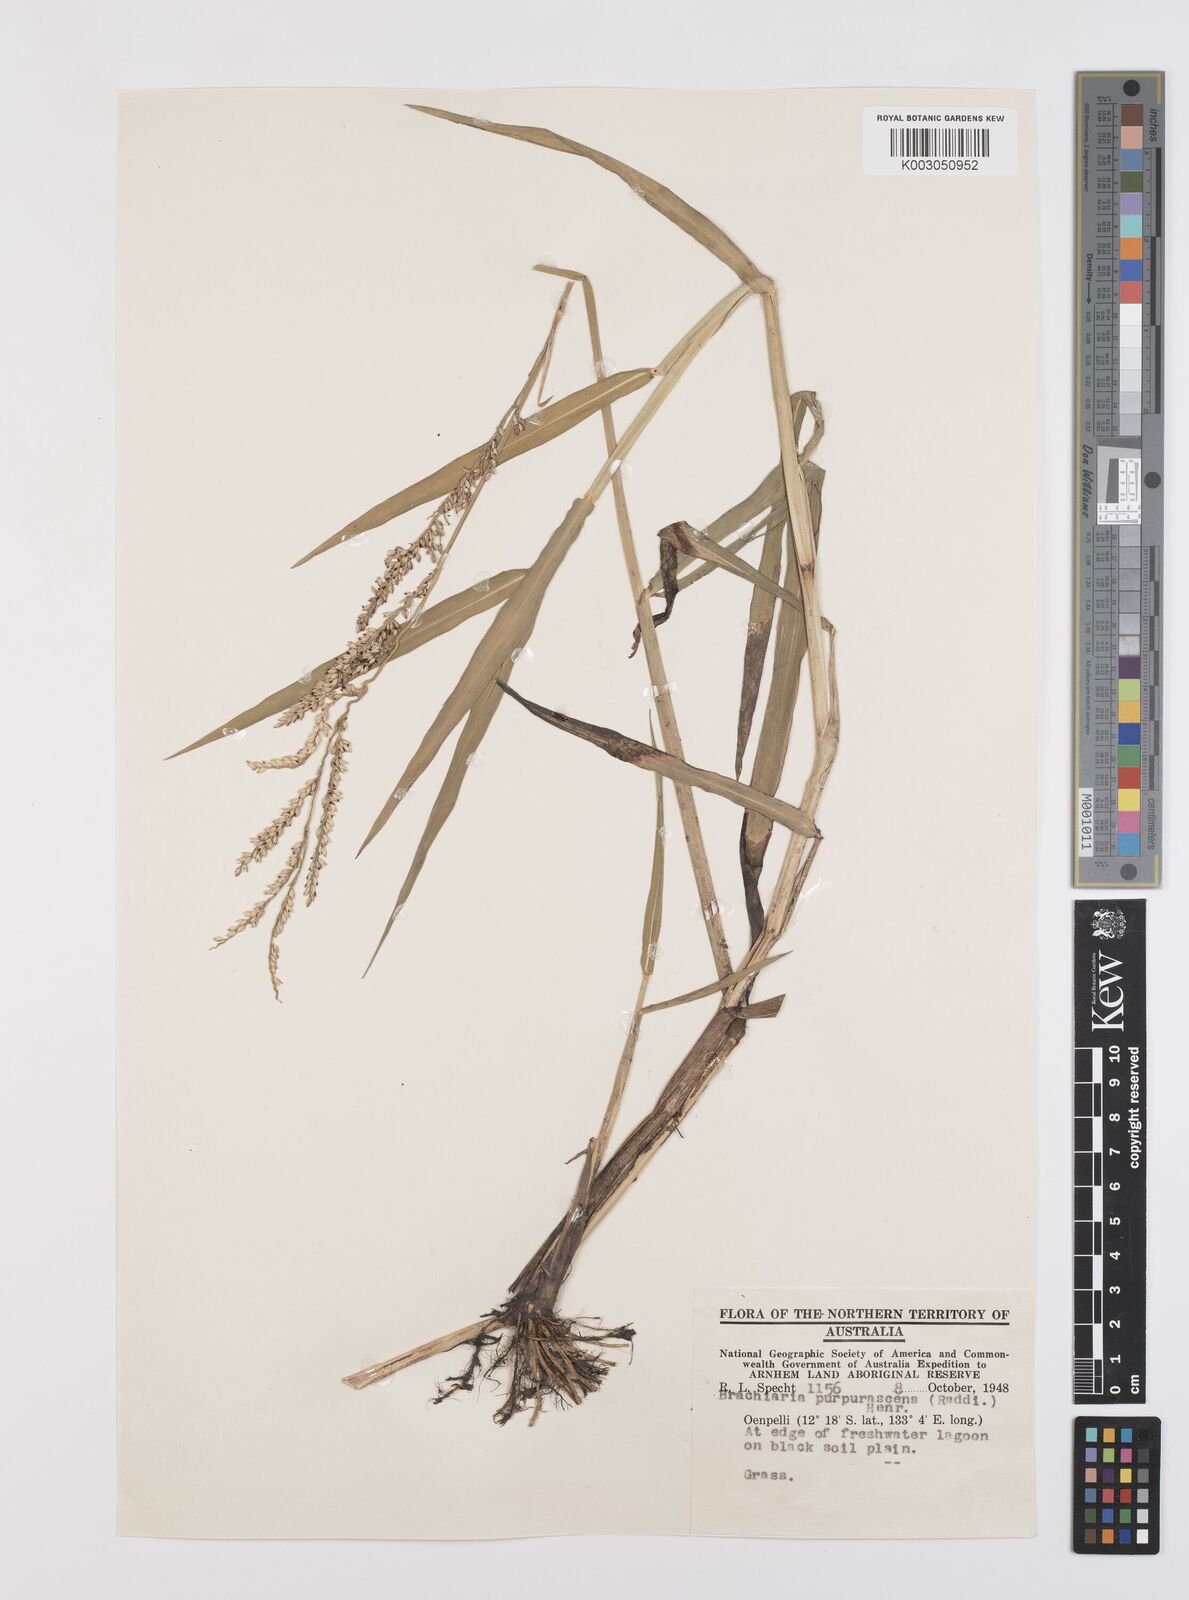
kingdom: Plantae
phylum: Tracheophyta
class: Liliopsida
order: Poales
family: Poaceae
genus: Urochloa
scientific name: Urochloa mutica
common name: Para grass
